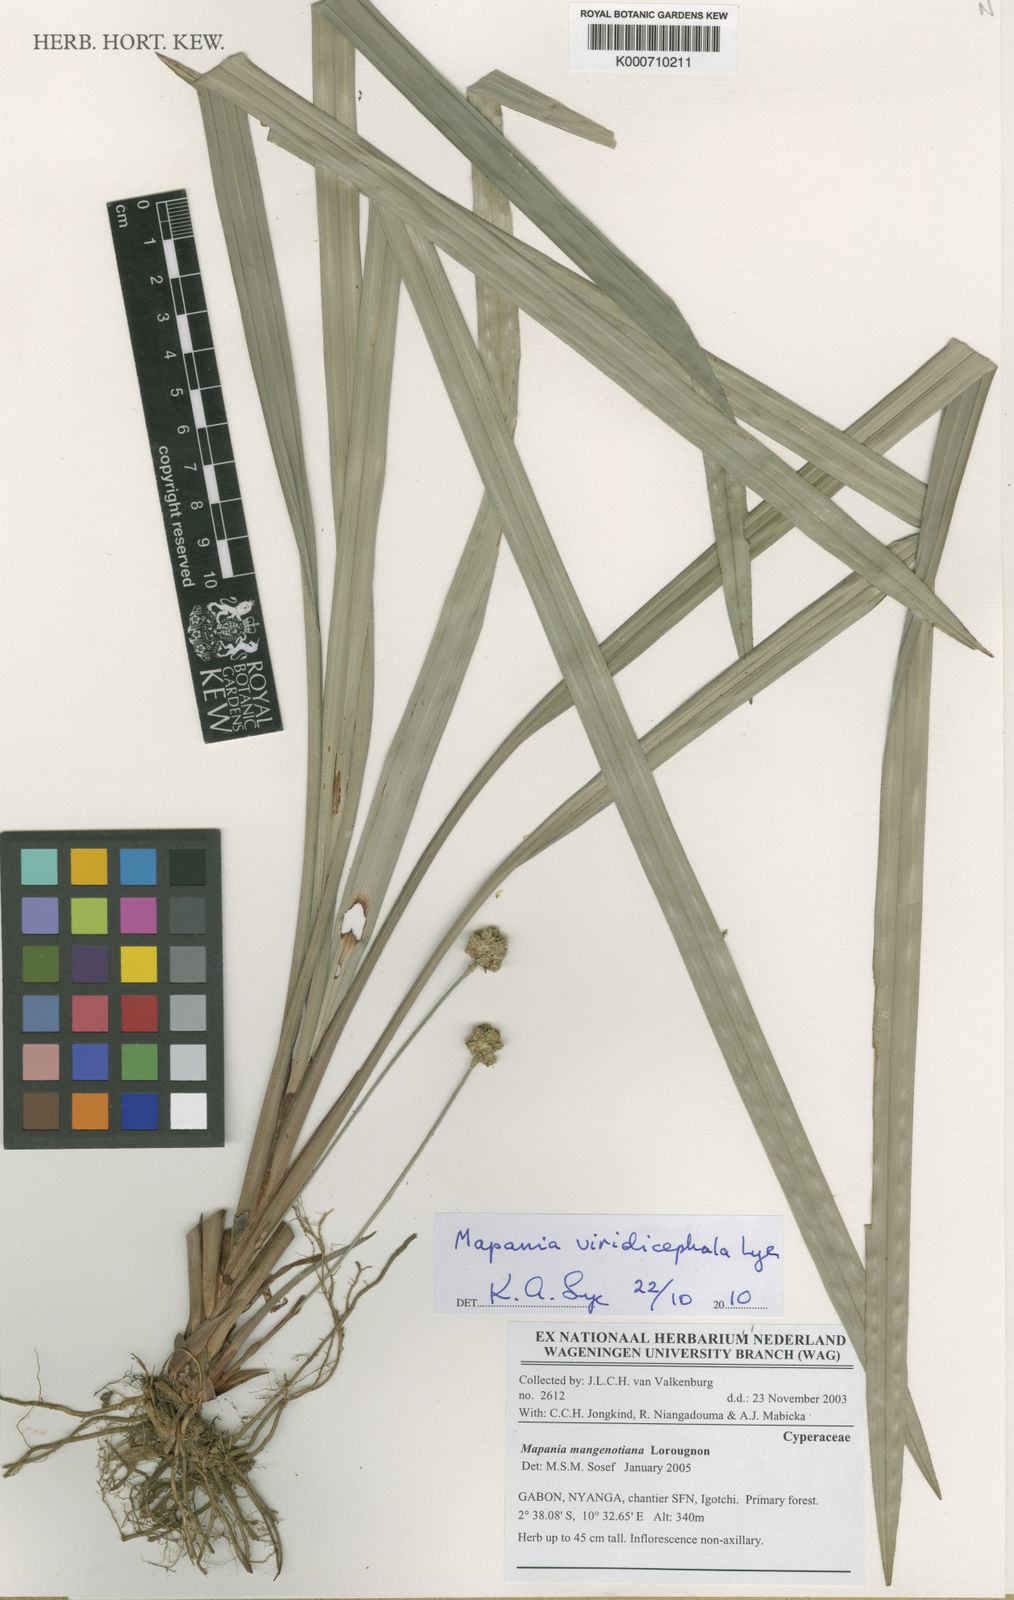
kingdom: Plantae
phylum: Tracheophyta
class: Liliopsida
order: Poales
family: Cyperaceae
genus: Mapania
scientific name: Mapania
